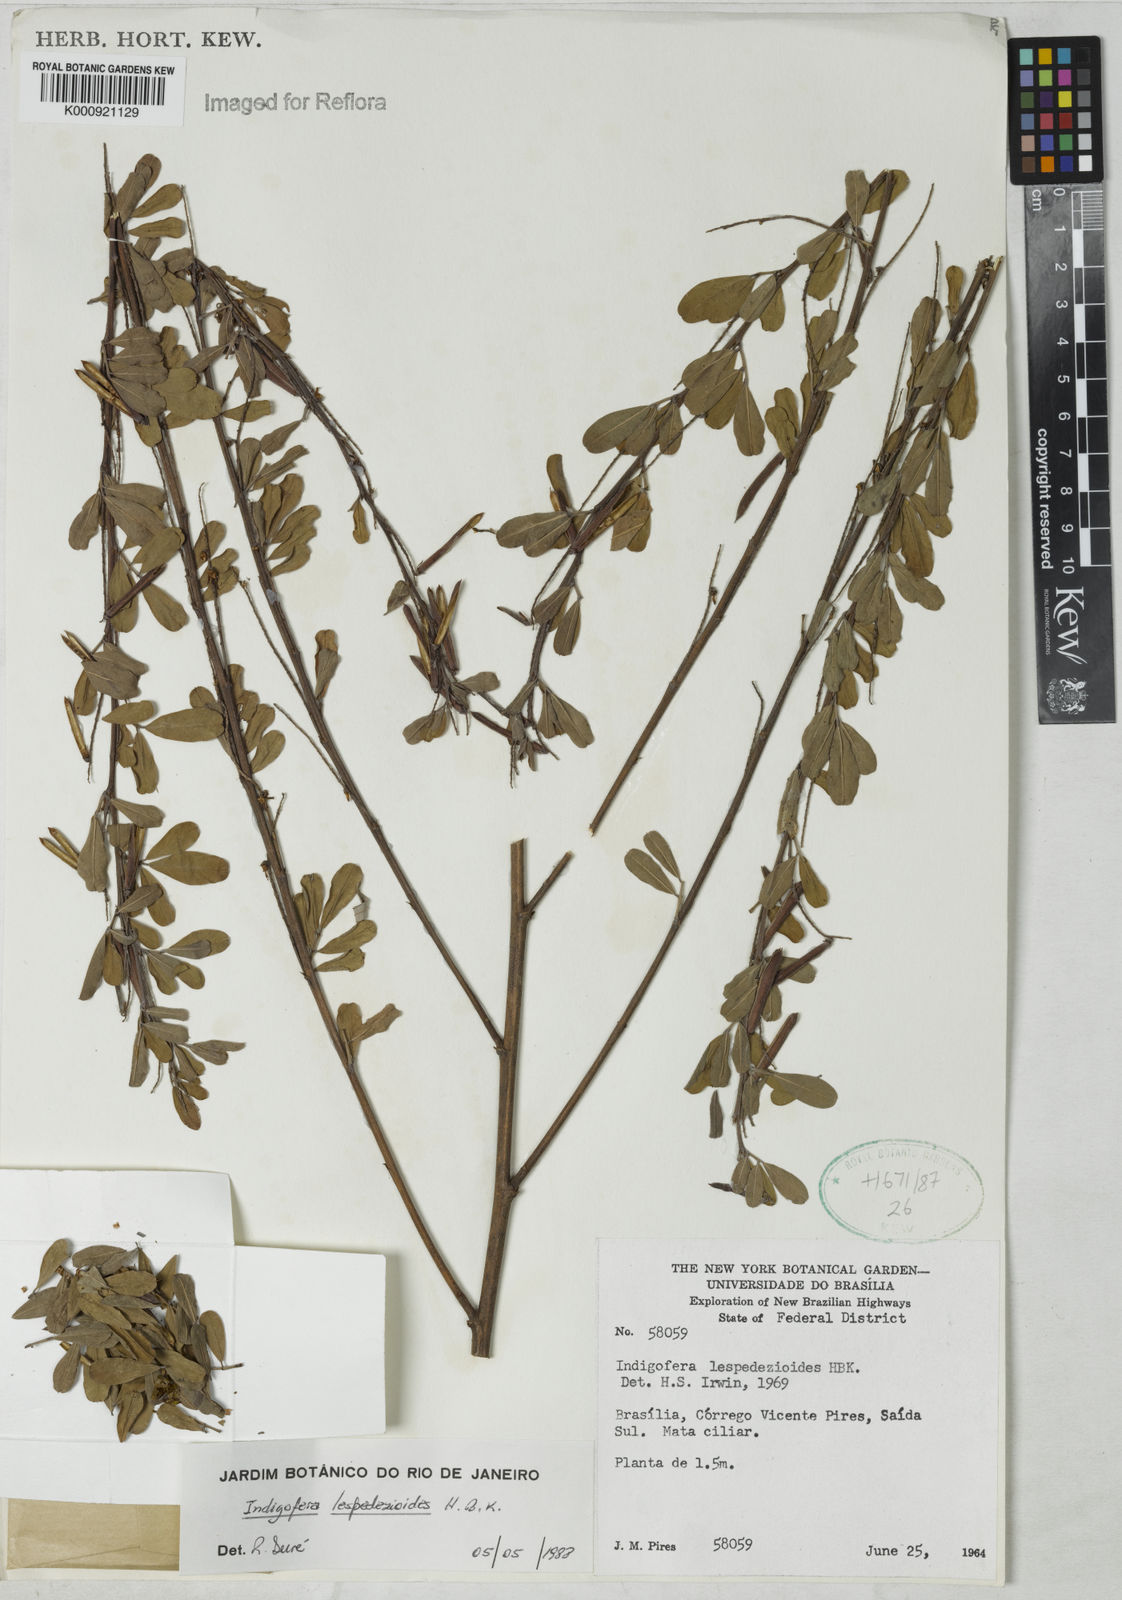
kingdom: Plantae
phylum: Tracheophyta
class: Magnoliopsida
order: Fabales
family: Fabaceae
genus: Indigofera
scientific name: Indigofera lespedezioides
